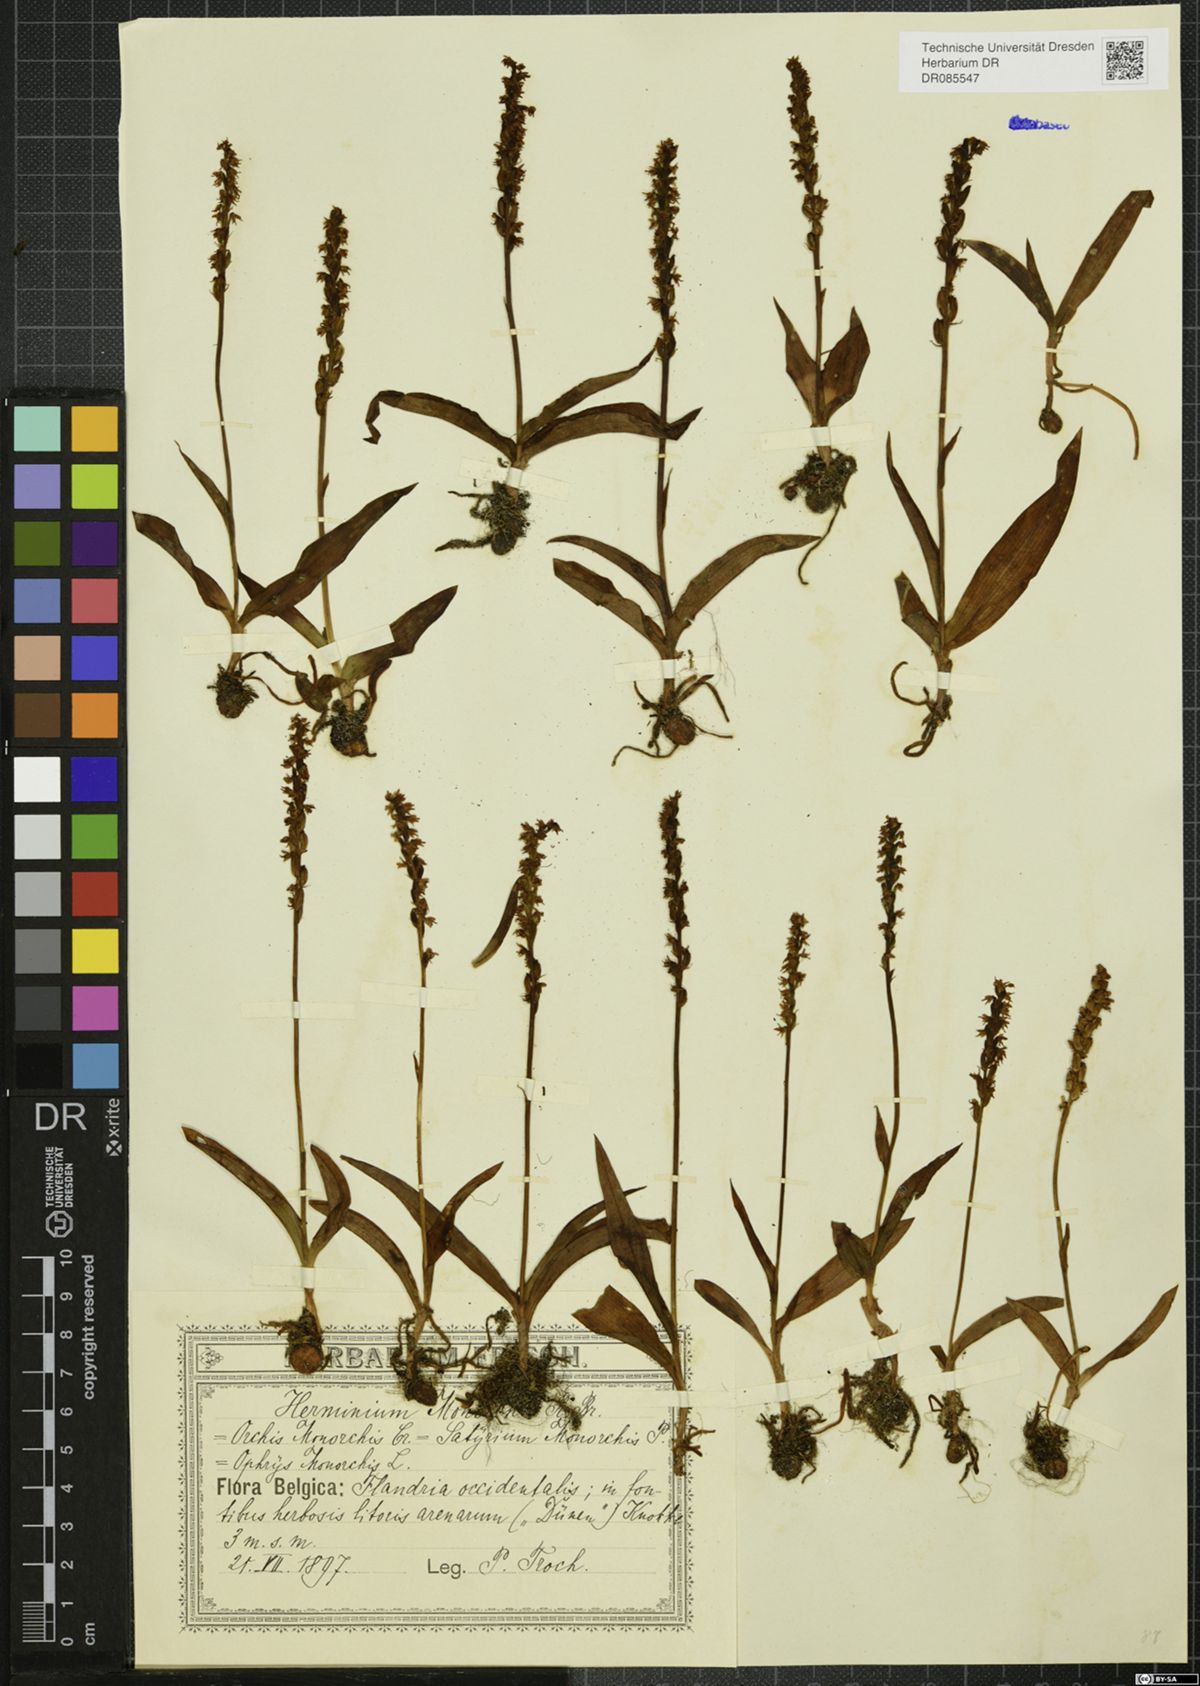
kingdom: Plantae
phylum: Tracheophyta
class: Liliopsida
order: Asparagales
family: Orchidaceae
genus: Herminium
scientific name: Herminium monorchis
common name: Musk orchid
